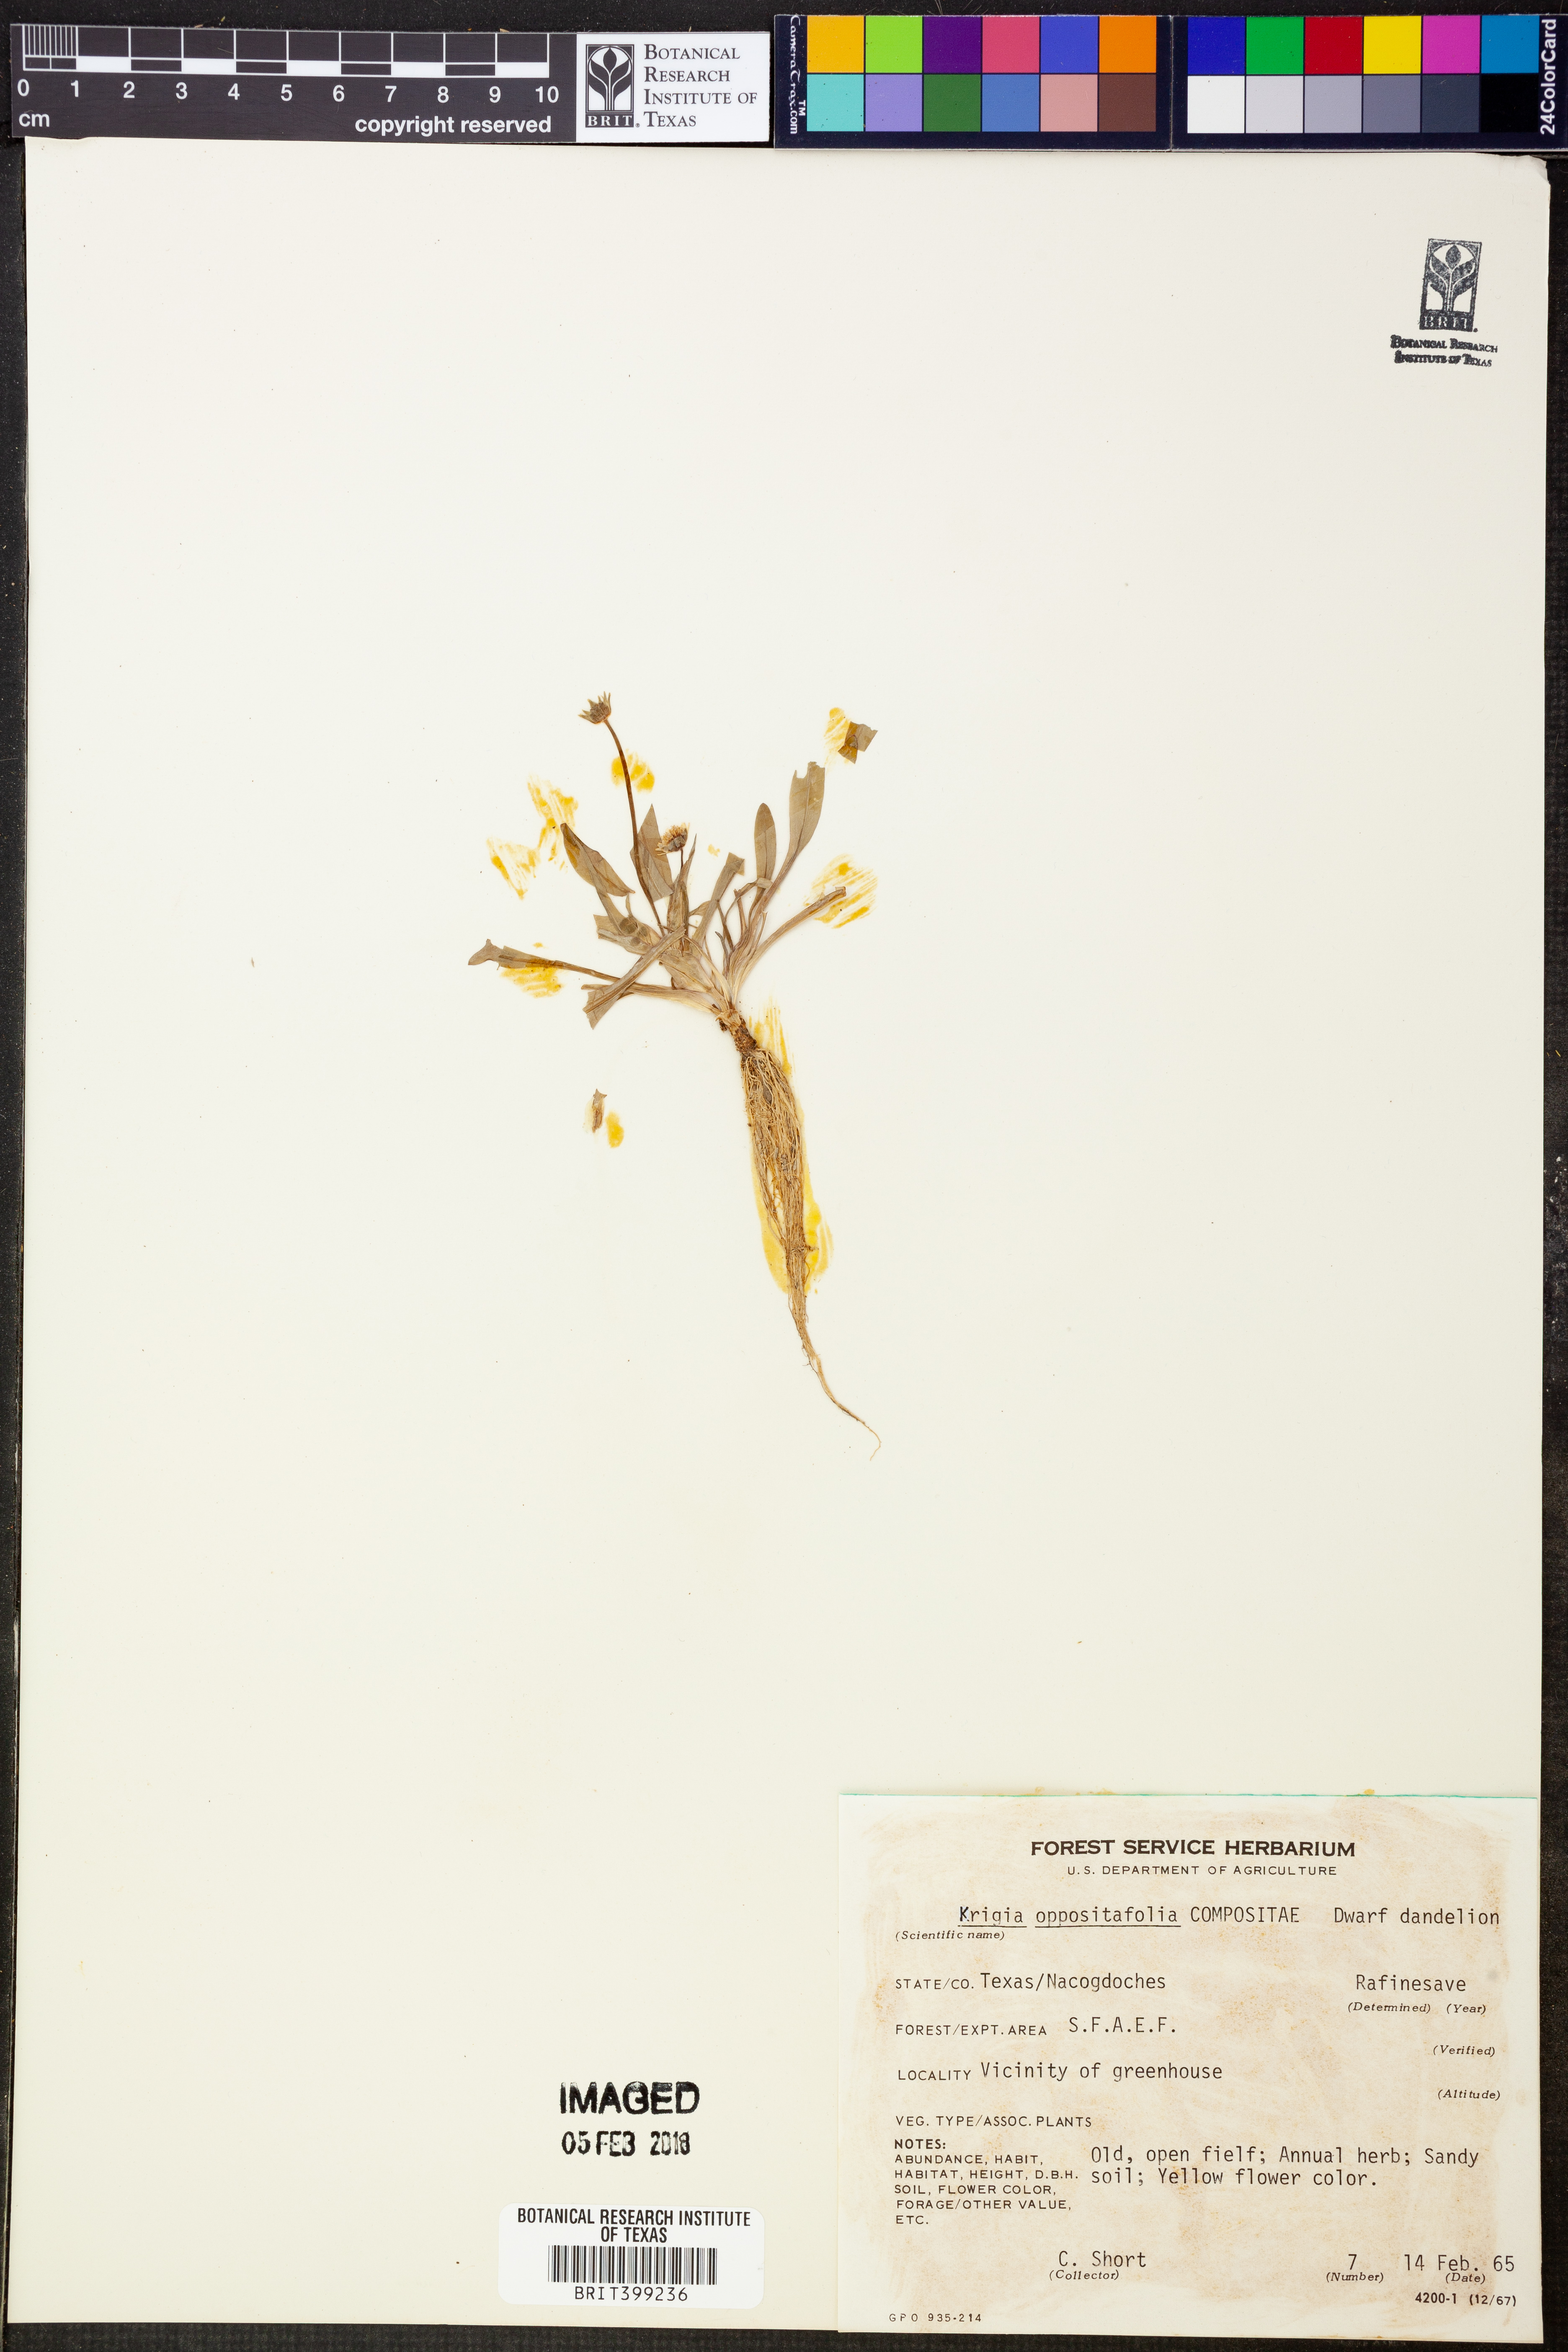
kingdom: Plantae
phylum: Tracheophyta
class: Magnoliopsida
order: Asterales
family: Asteraceae
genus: Krigia
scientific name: Krigia cespitosa
